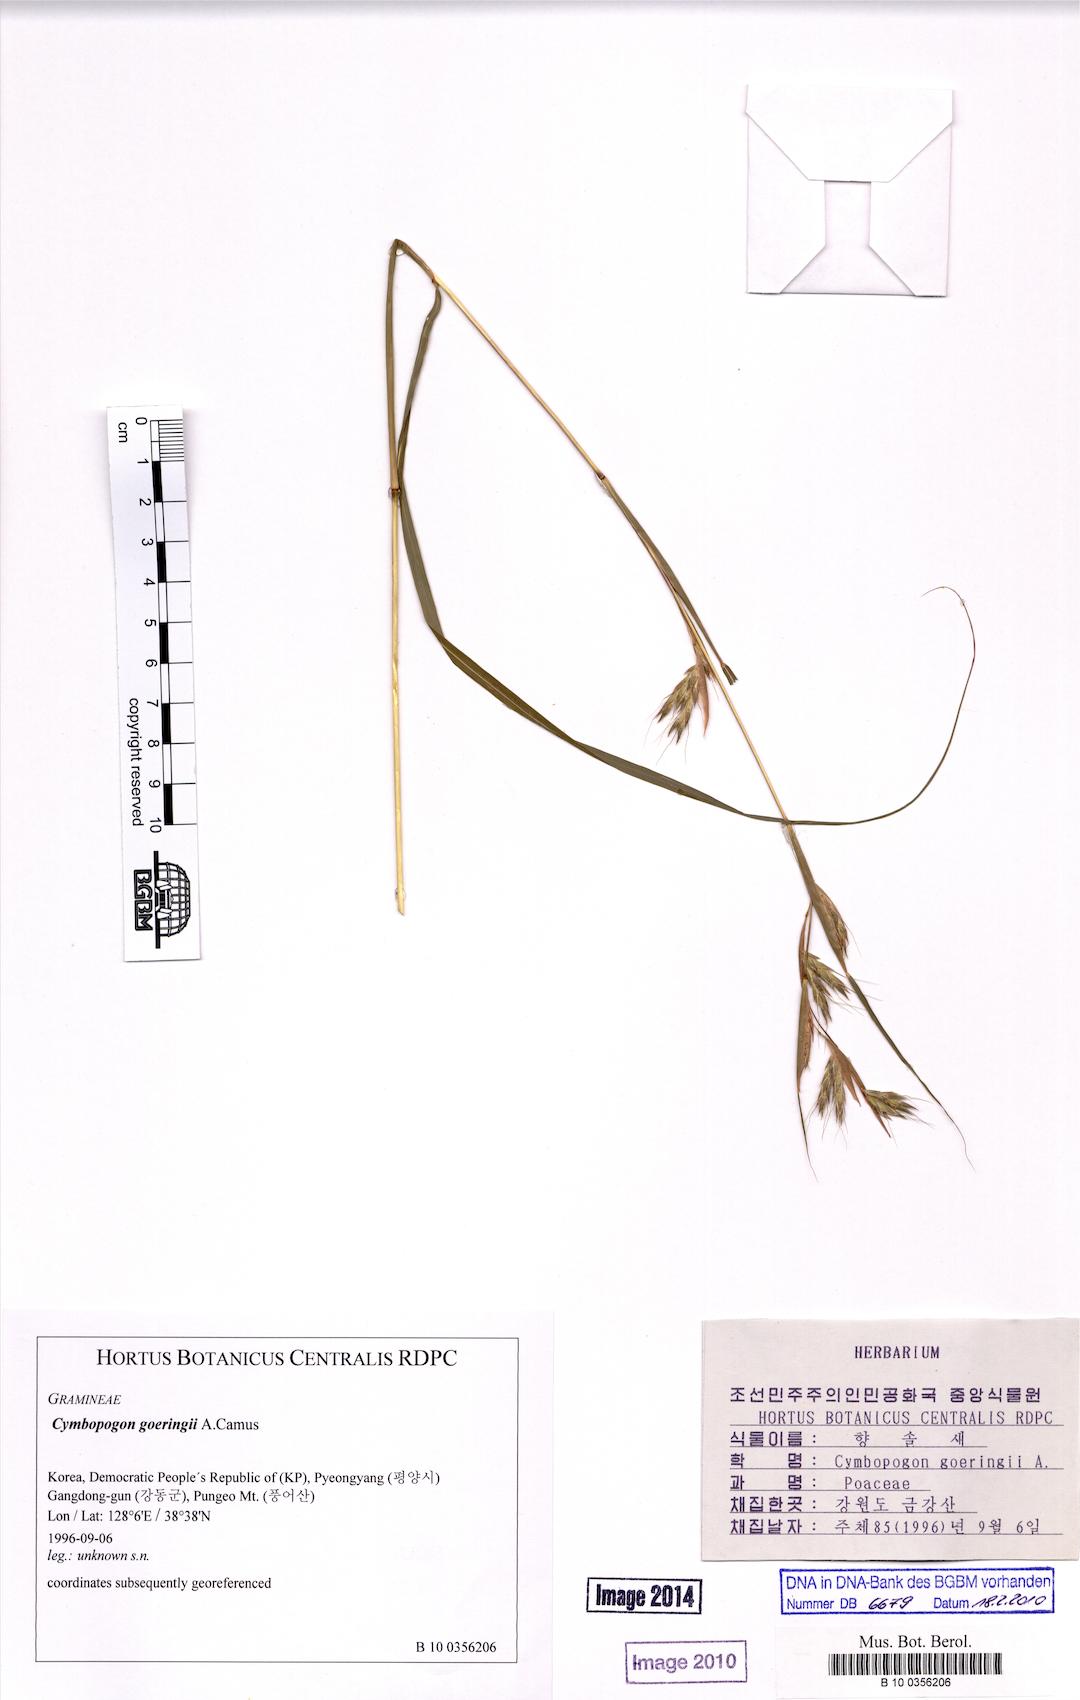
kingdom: Plantae
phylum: Tracheophyta
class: Liliopsida
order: Poales
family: Poaceae
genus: Cymbopogon
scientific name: Cymbopogon goeringii
